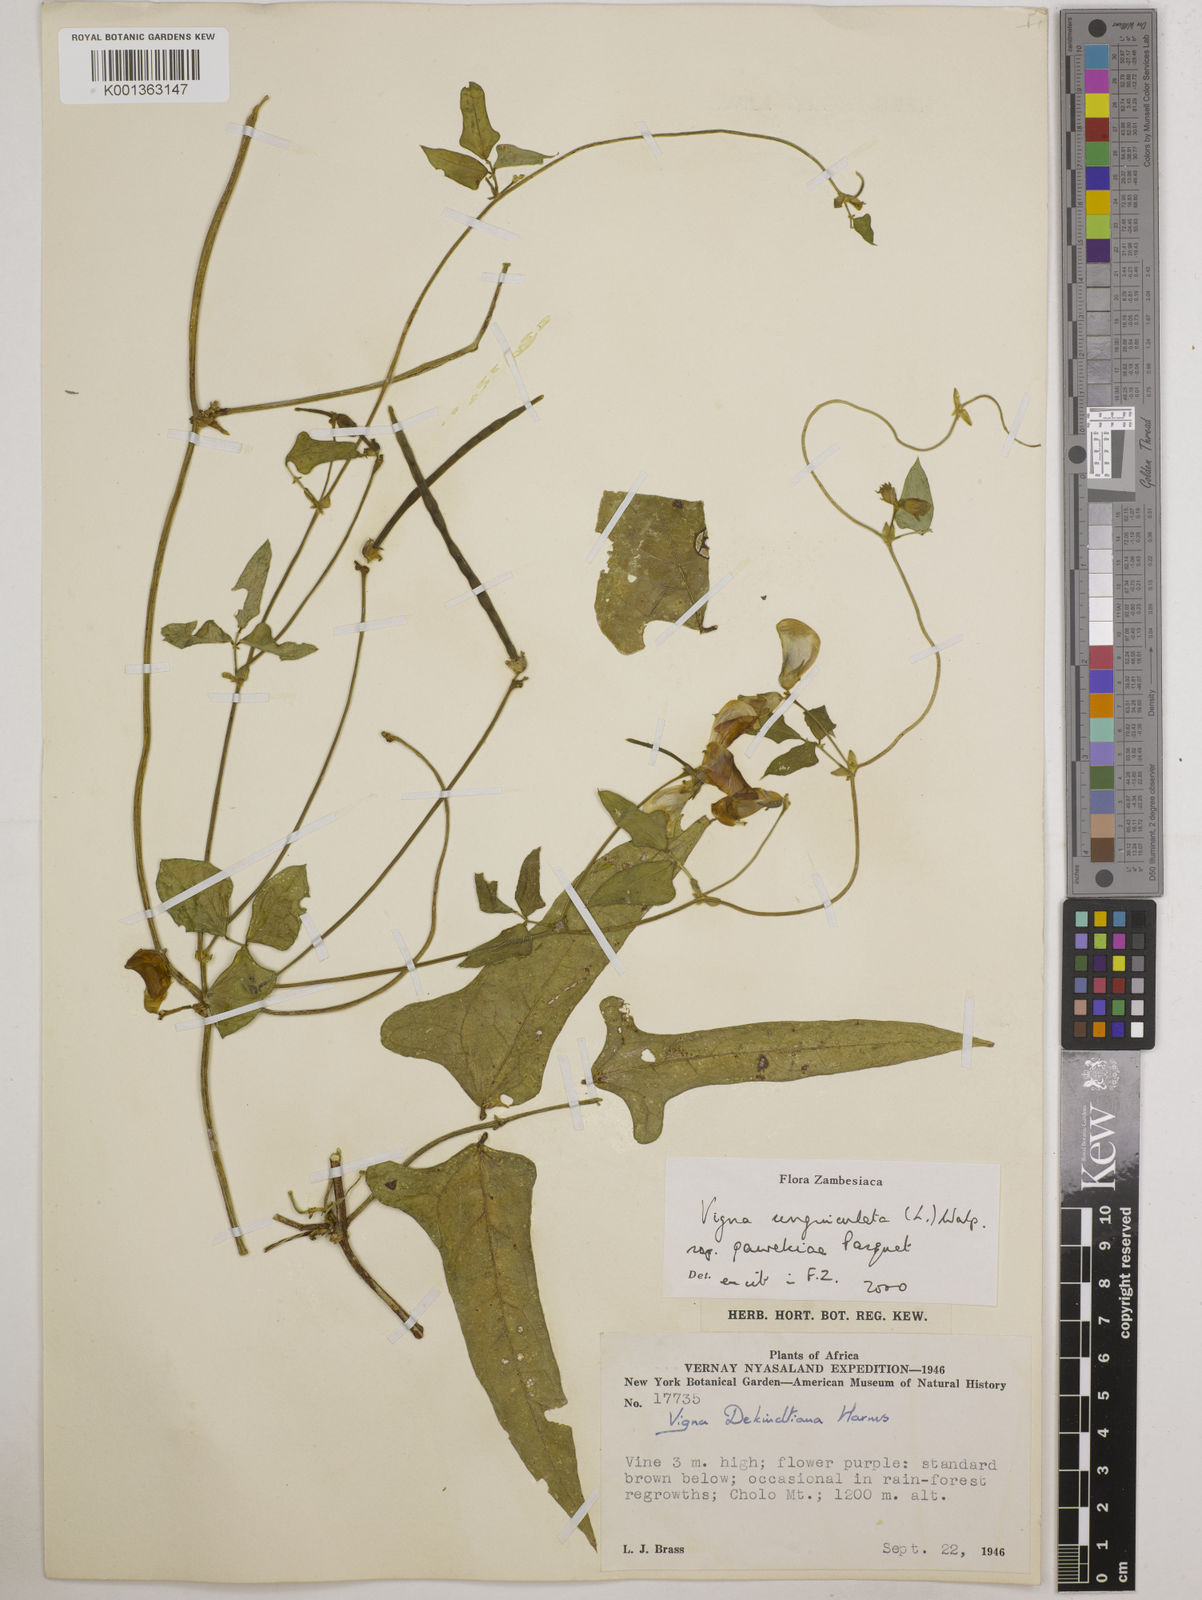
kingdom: Plantae
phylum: Tracheophyta
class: Magnoliopsida
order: Fabales
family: Fabaceae
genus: Vigna
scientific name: Vigna unguiculata
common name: Cowpea
